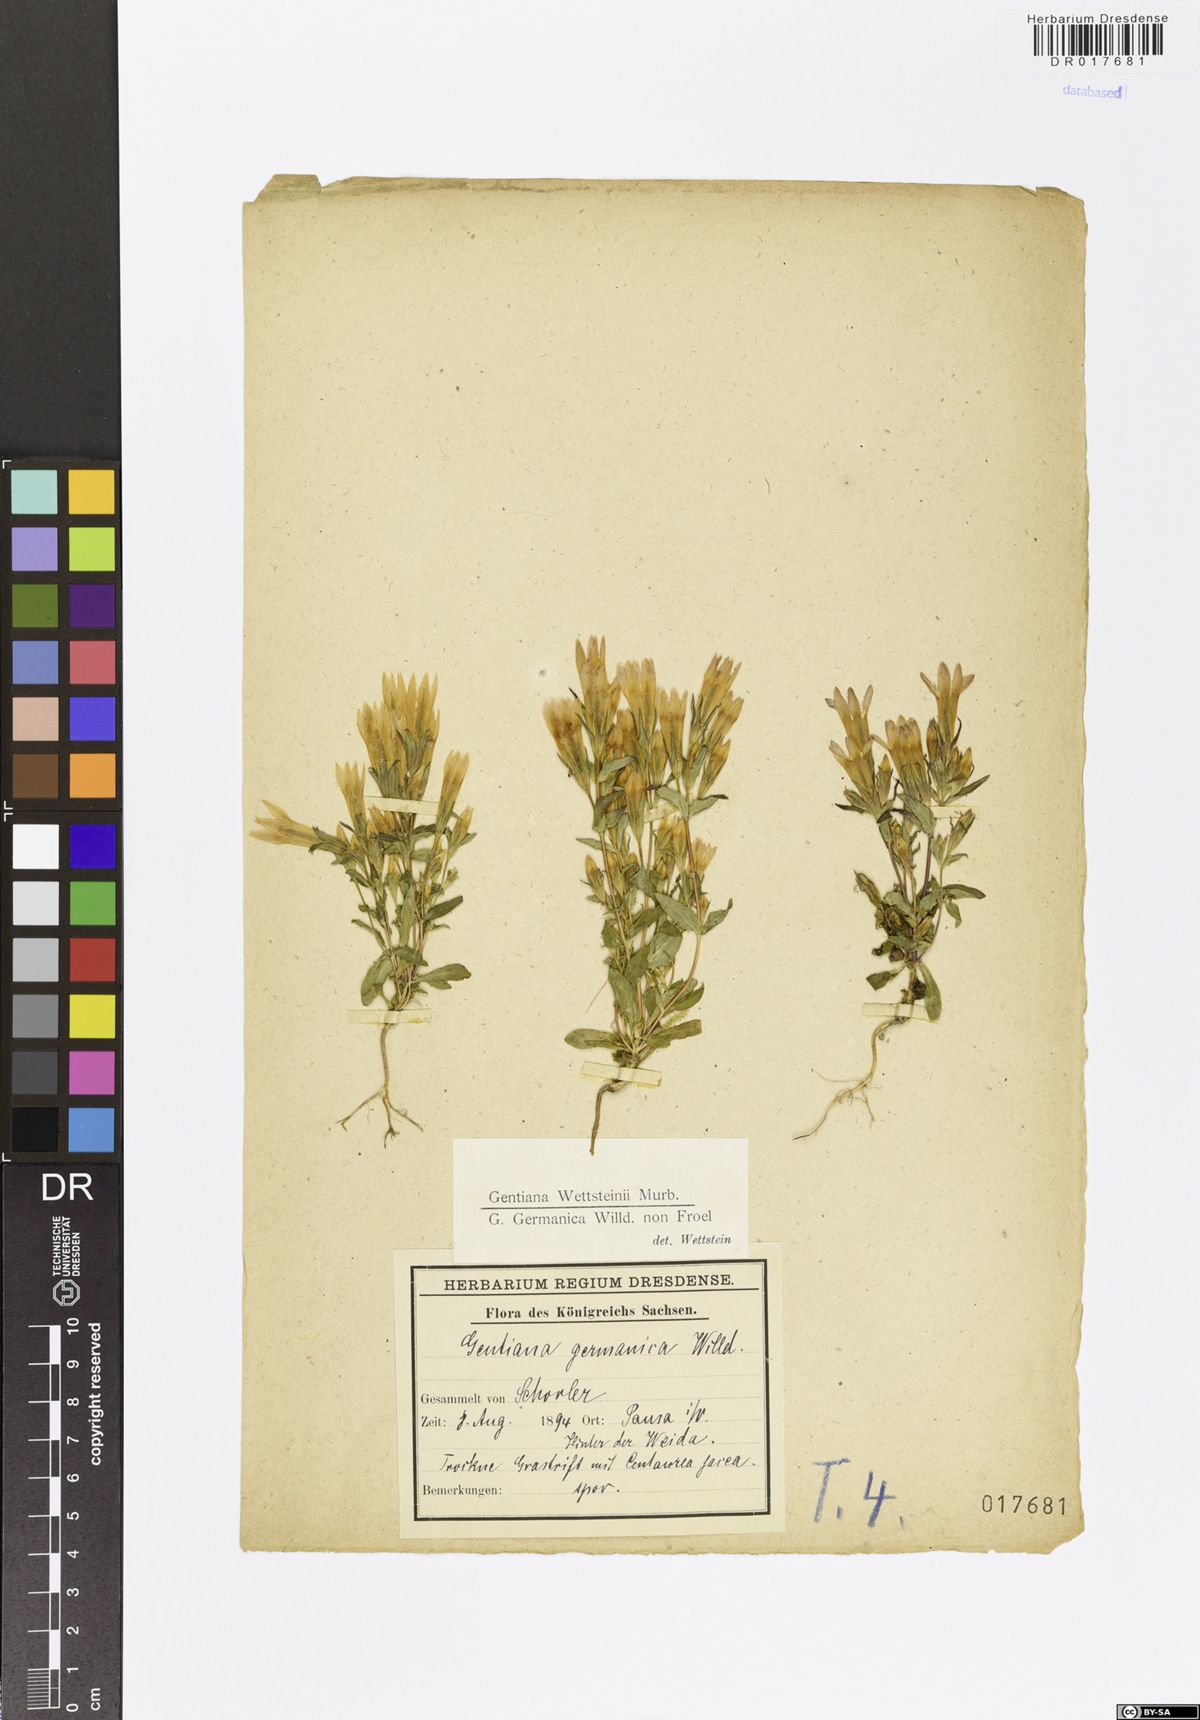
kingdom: Plantae
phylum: Tracheophyta
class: Magnoliopsida
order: Gentianales
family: Gentianaceae
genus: Gentianella
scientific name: Gentianella germanica
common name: Chiltern-gentian
